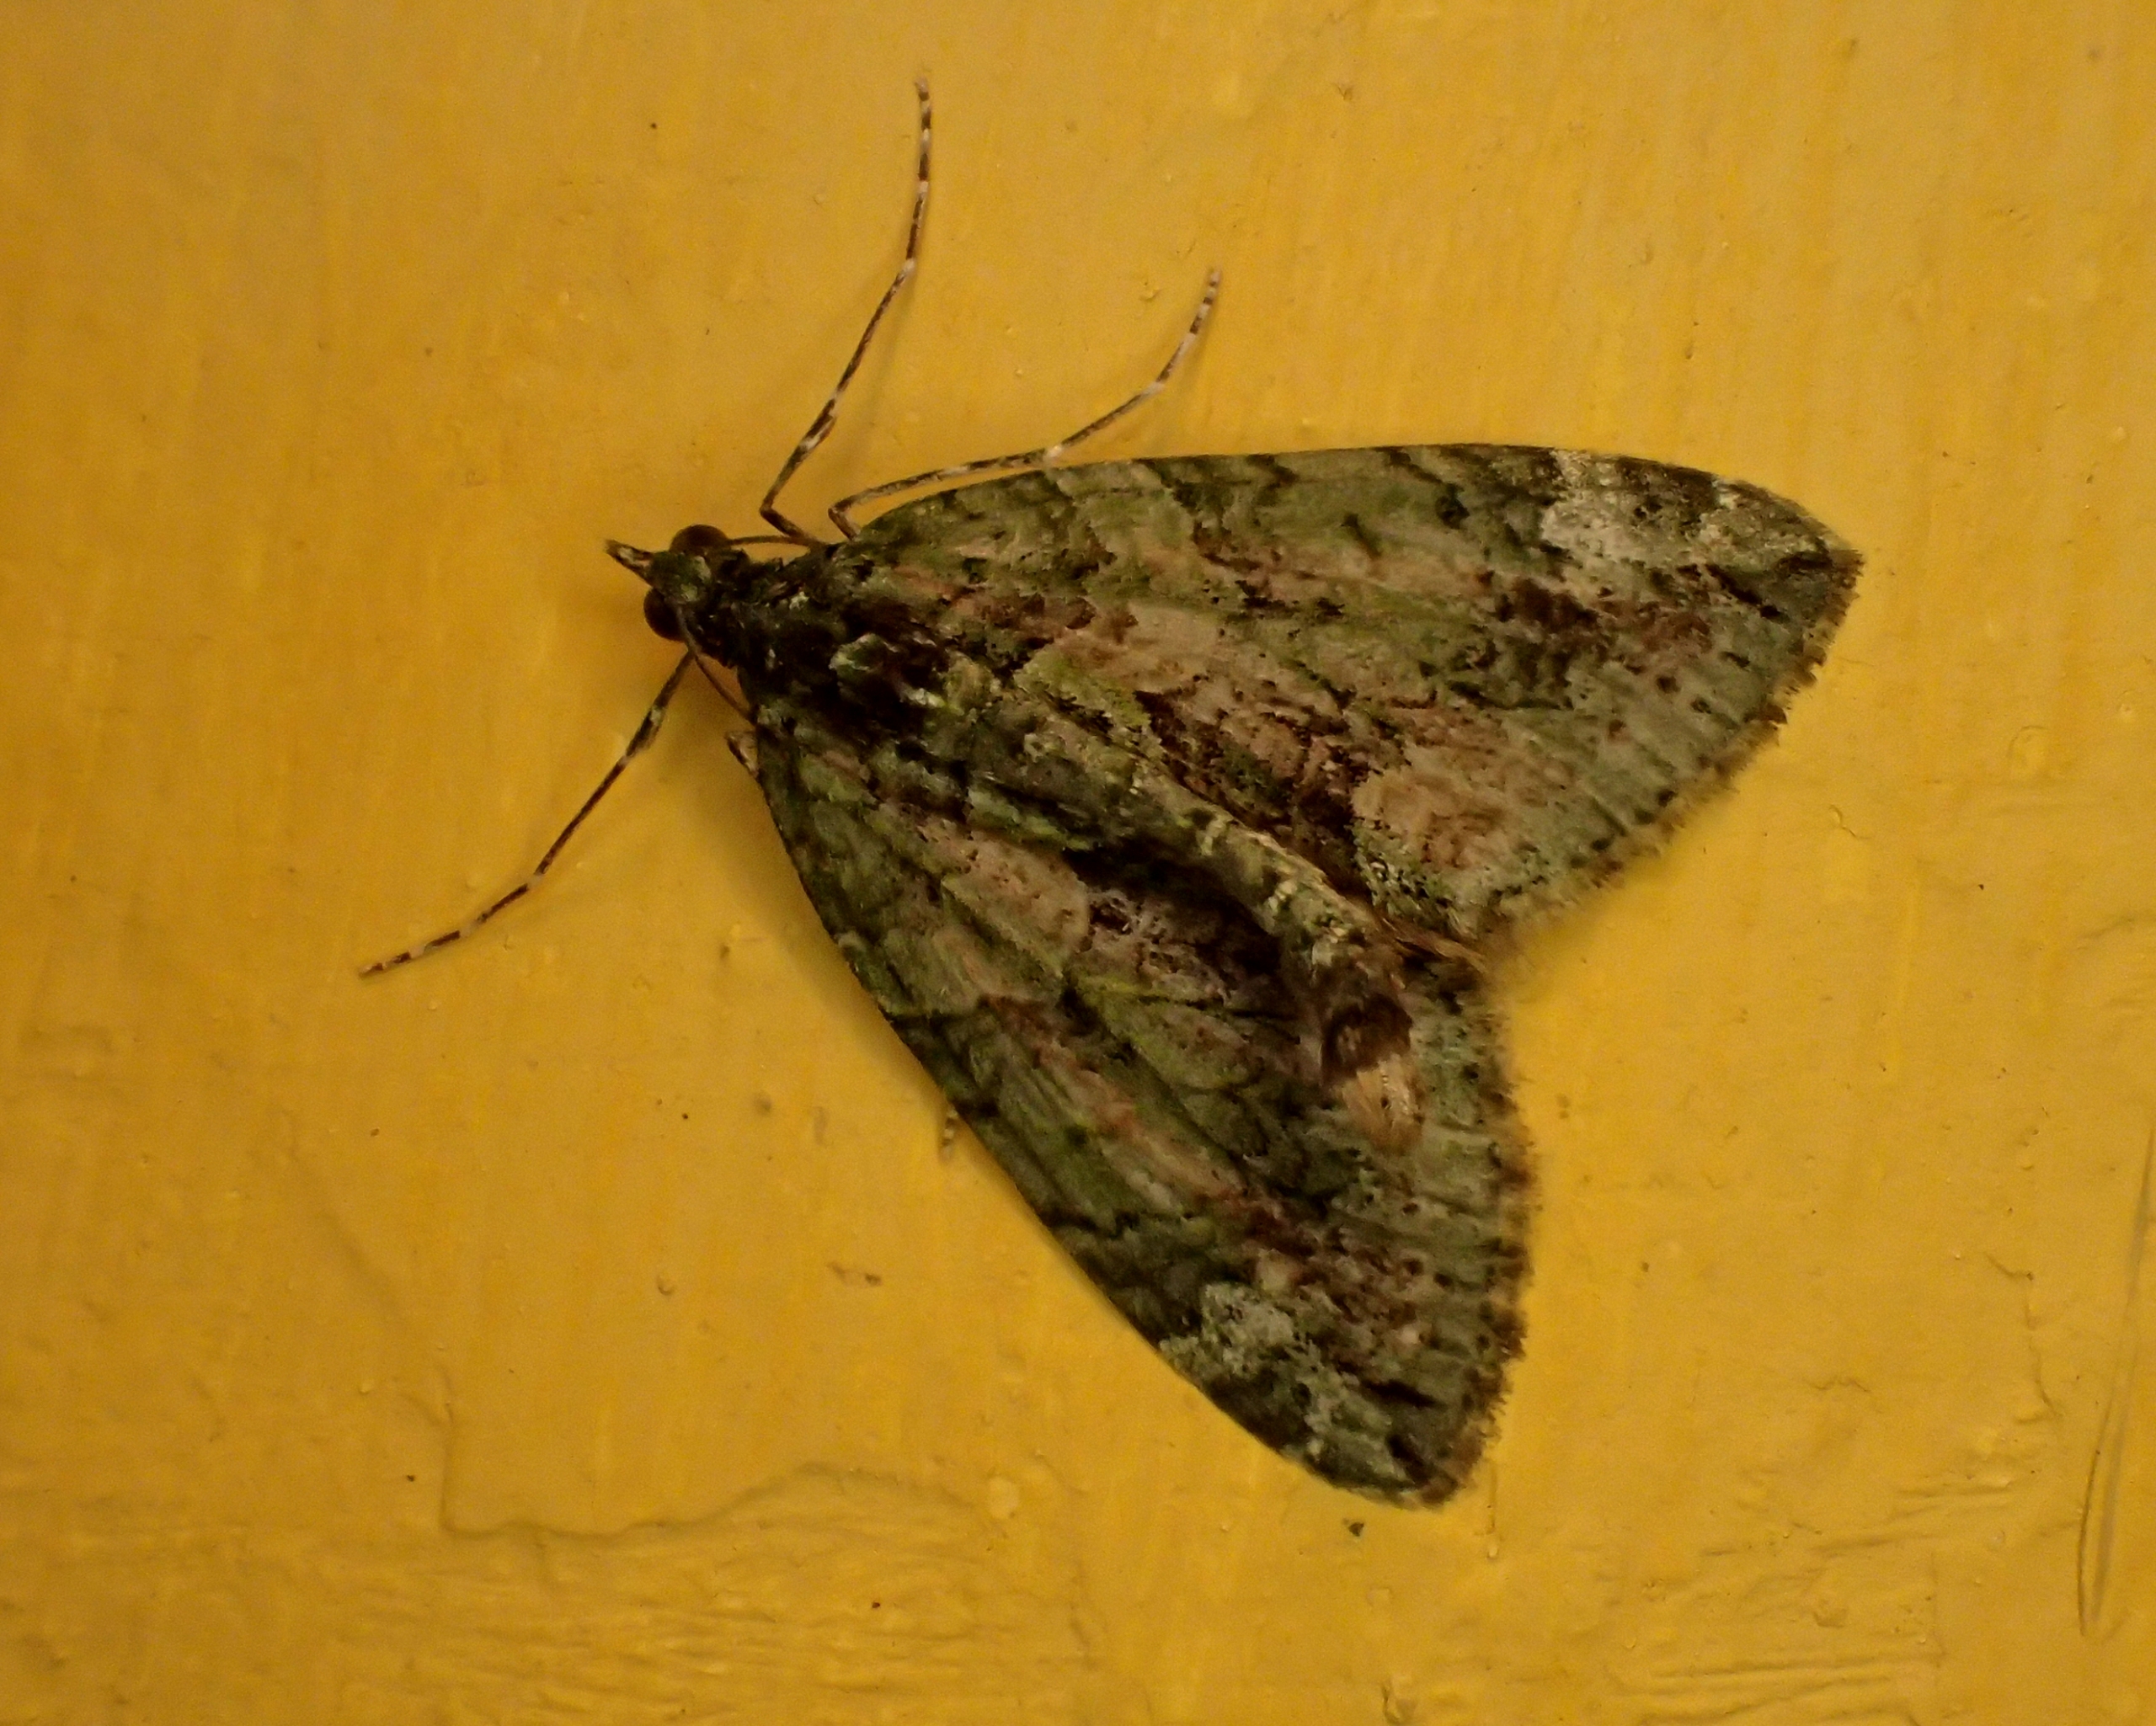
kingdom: Animalia
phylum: Arthropoda
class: Insecta
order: Lepidoptera
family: Geometridae
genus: Chloroclysta
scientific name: Chloroclysta siterata
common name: Brungrøn bladmåler
